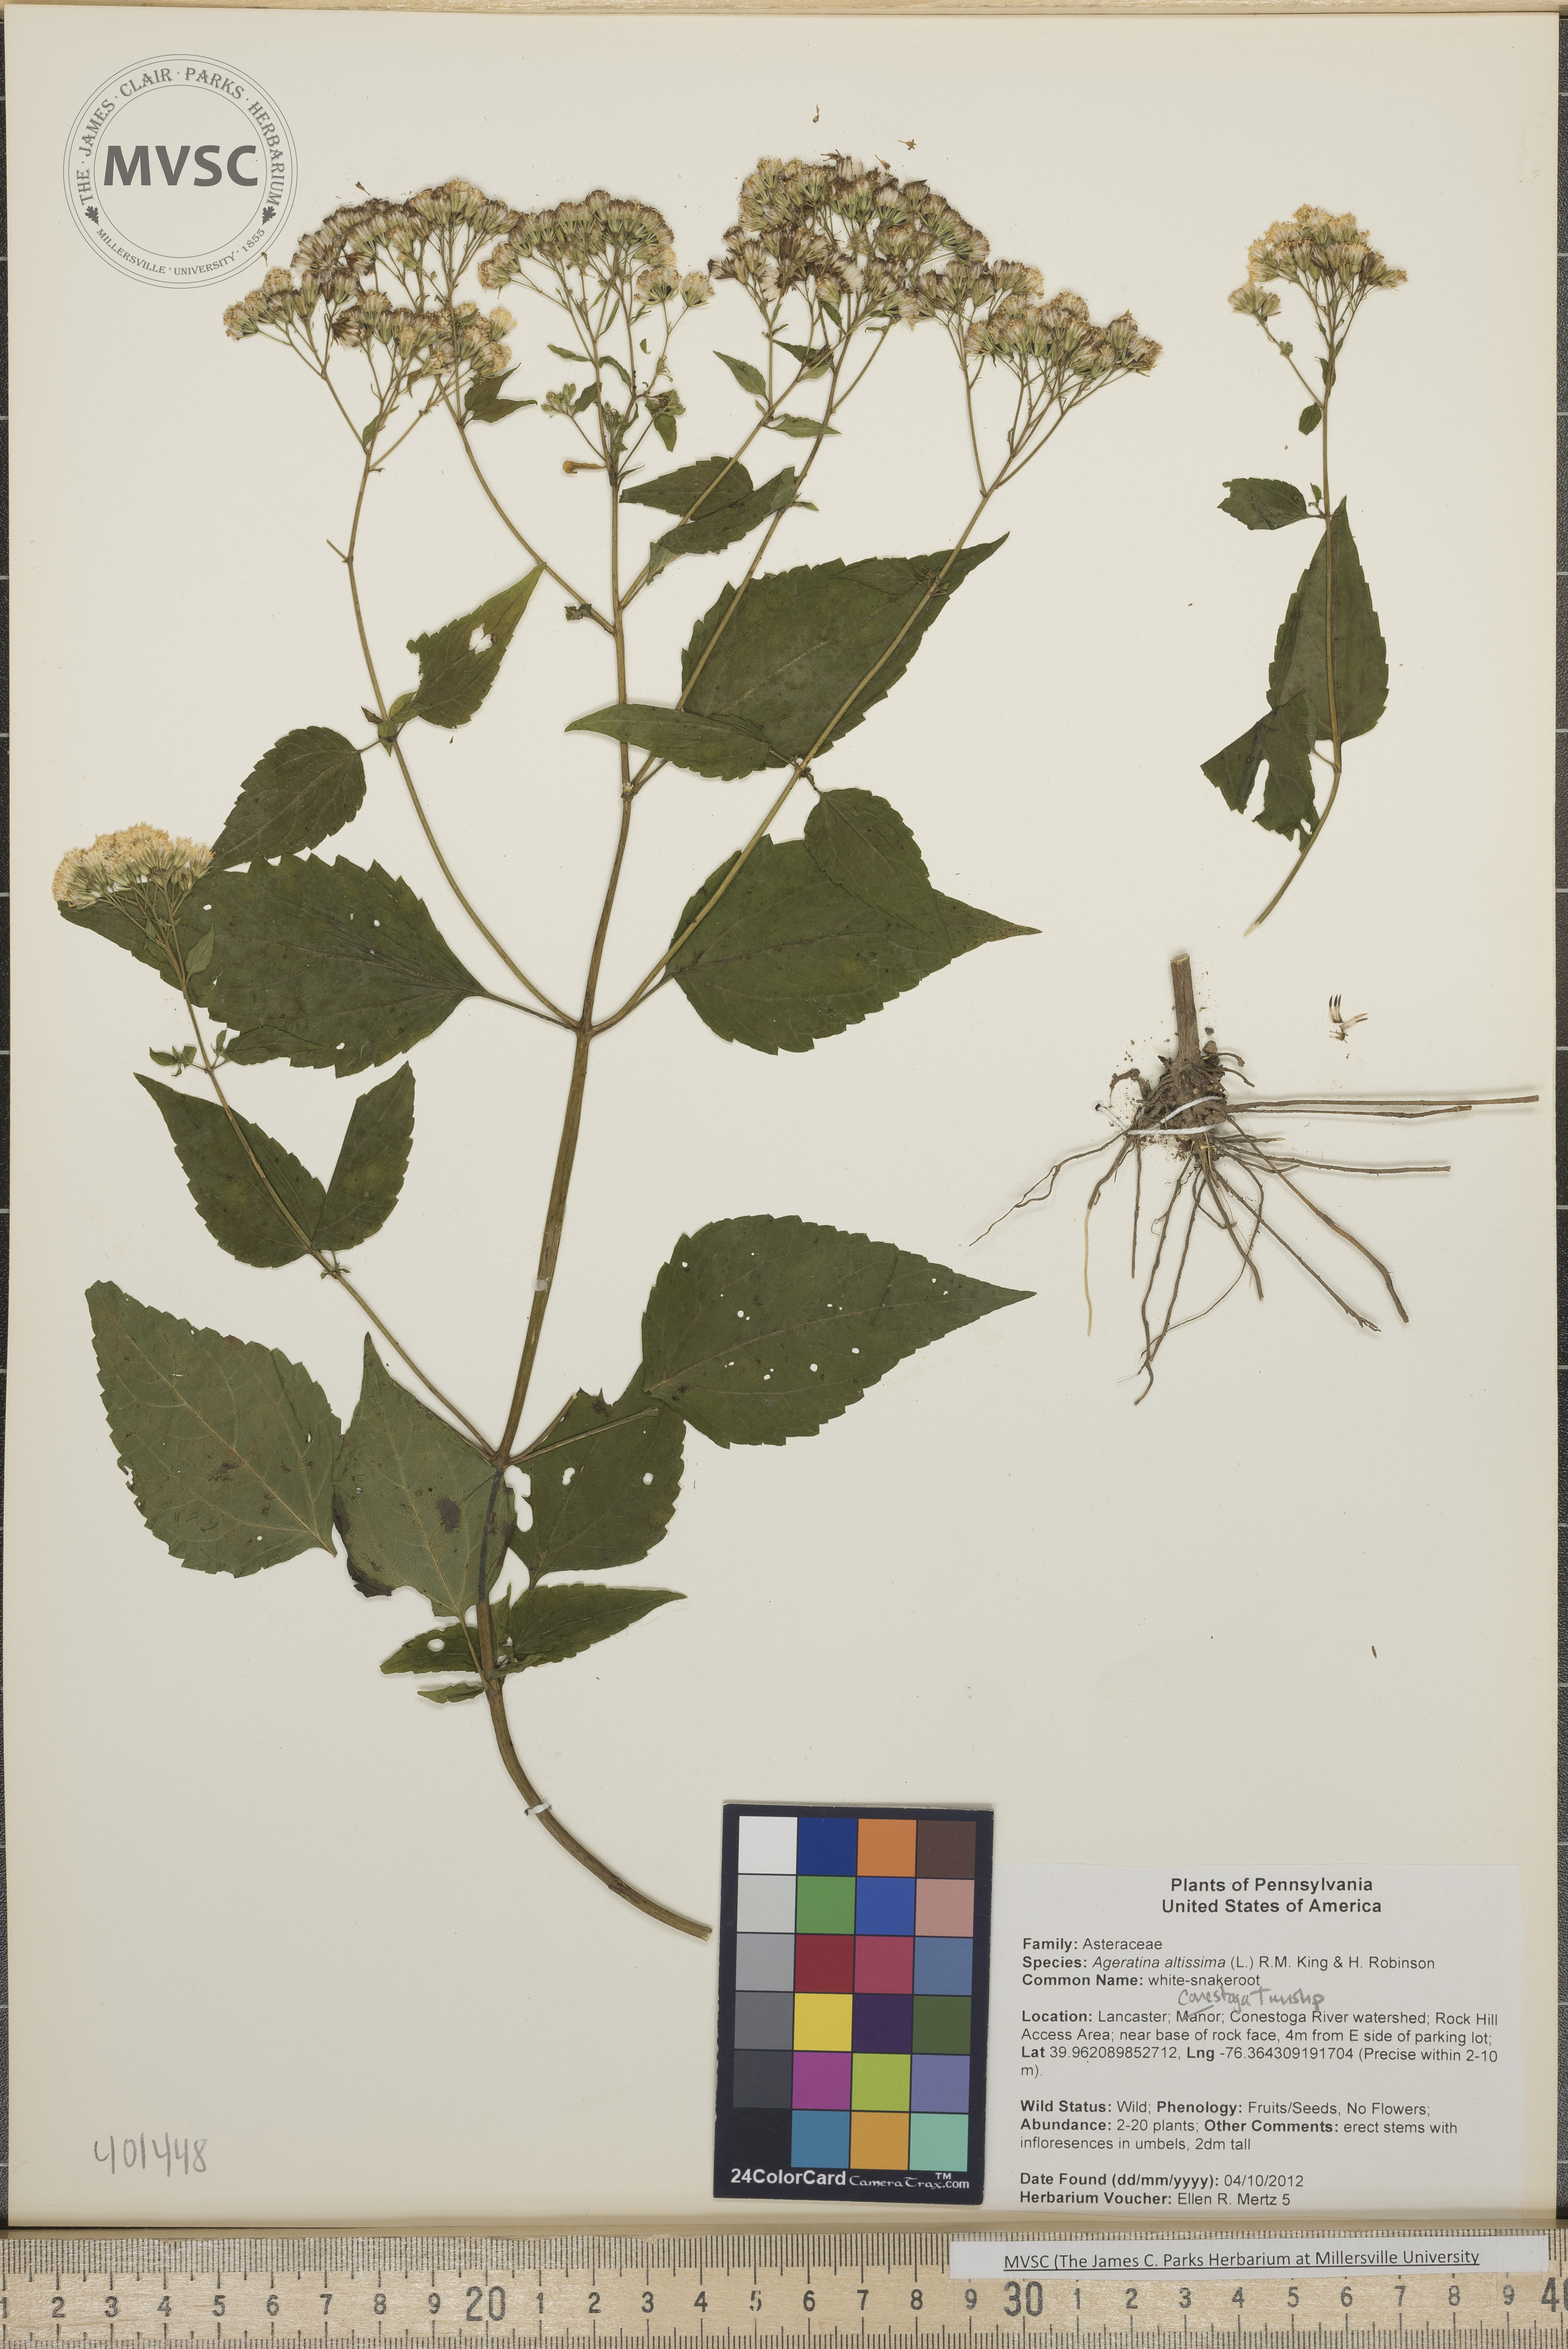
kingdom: Plantae
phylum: Tracheophyta
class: Magnoliopsida
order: Asterales
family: Asteraceae
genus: Ageratina
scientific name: Ageratina altissima
